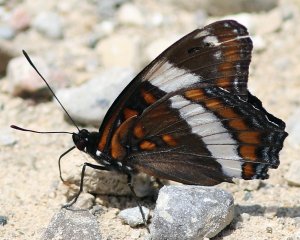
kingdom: Animalia
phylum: Arthropoda
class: Insecta
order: Lepidoptera
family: Nymphalidae
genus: Limenitis
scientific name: Limenitis arthemis
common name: Red-spotted Admiral
